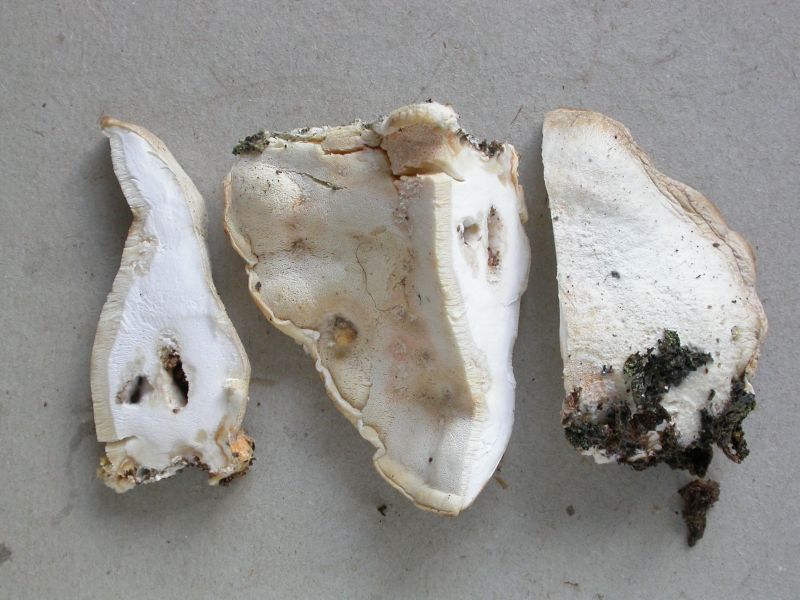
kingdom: Fungi
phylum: Basidiomycota
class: Agaricomycetes
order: Polyporales
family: Incrustoporiaceae
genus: Tyromyces
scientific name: Tyromyces chioneus
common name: stor blødporesvamp
